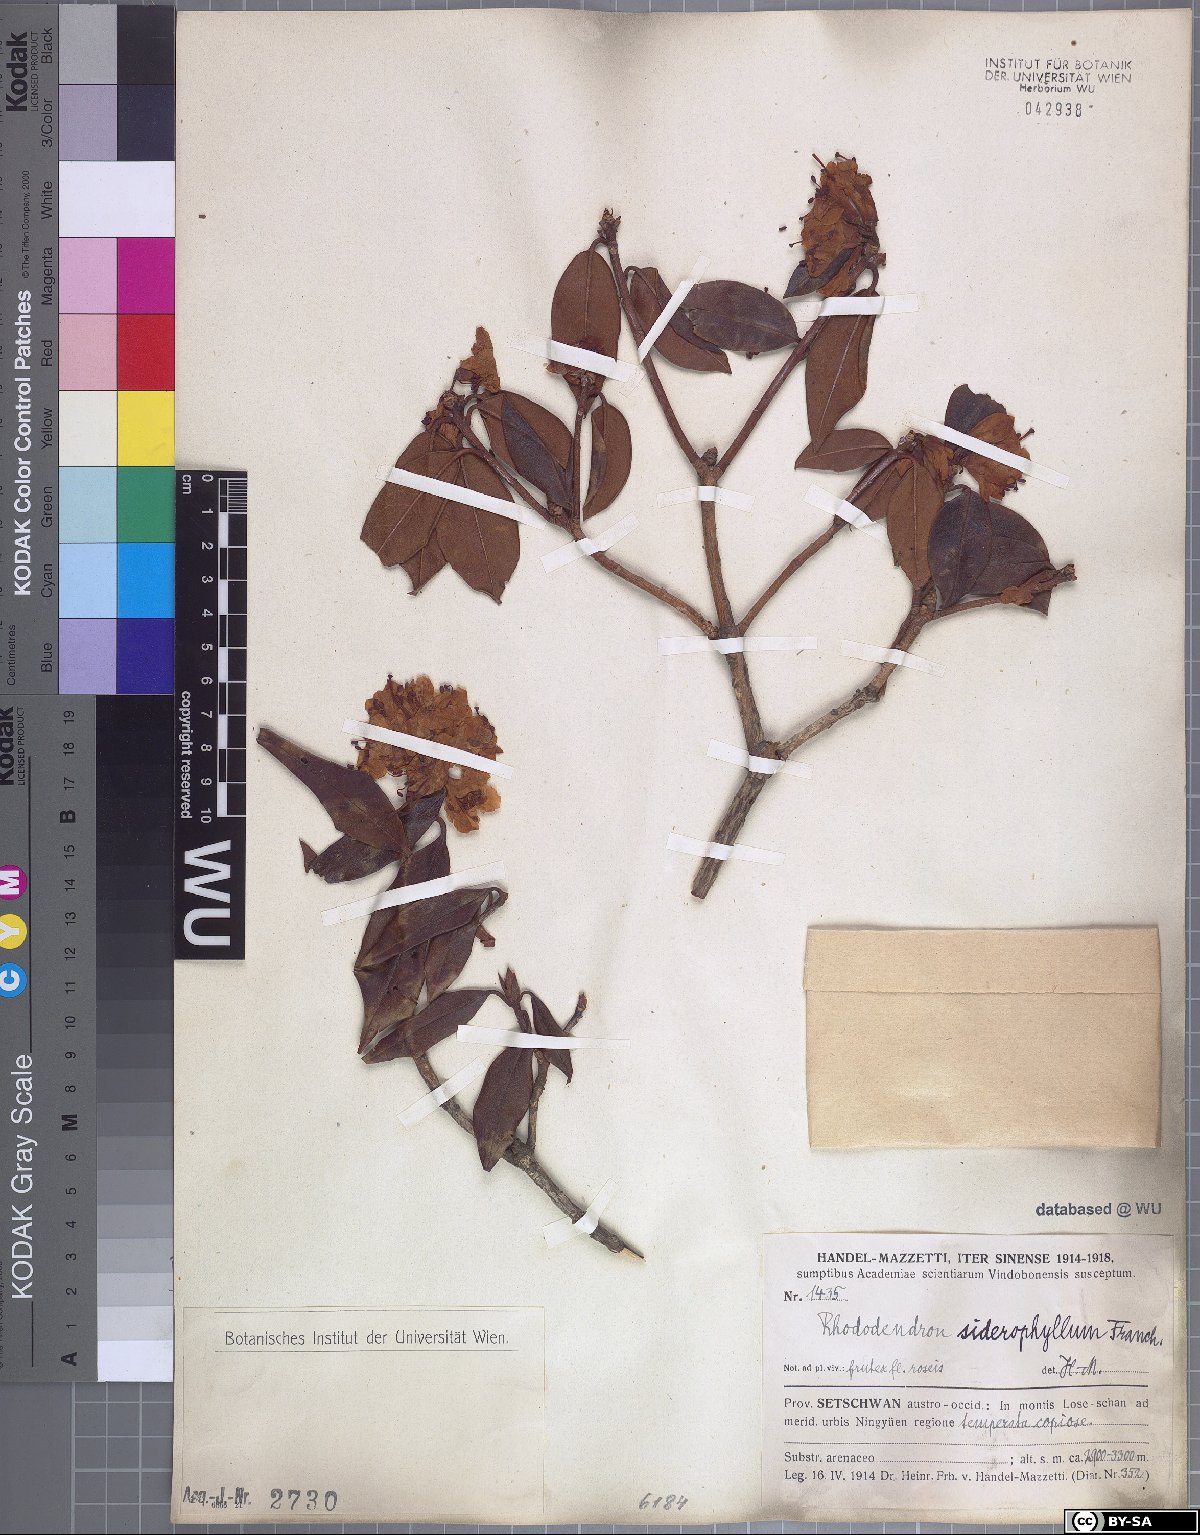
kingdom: Plantae
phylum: Tracheophyta
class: Magnoliopsida
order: Ericales
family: Ericaceae
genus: Rhododendron
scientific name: Rhododendron siderophyllum
